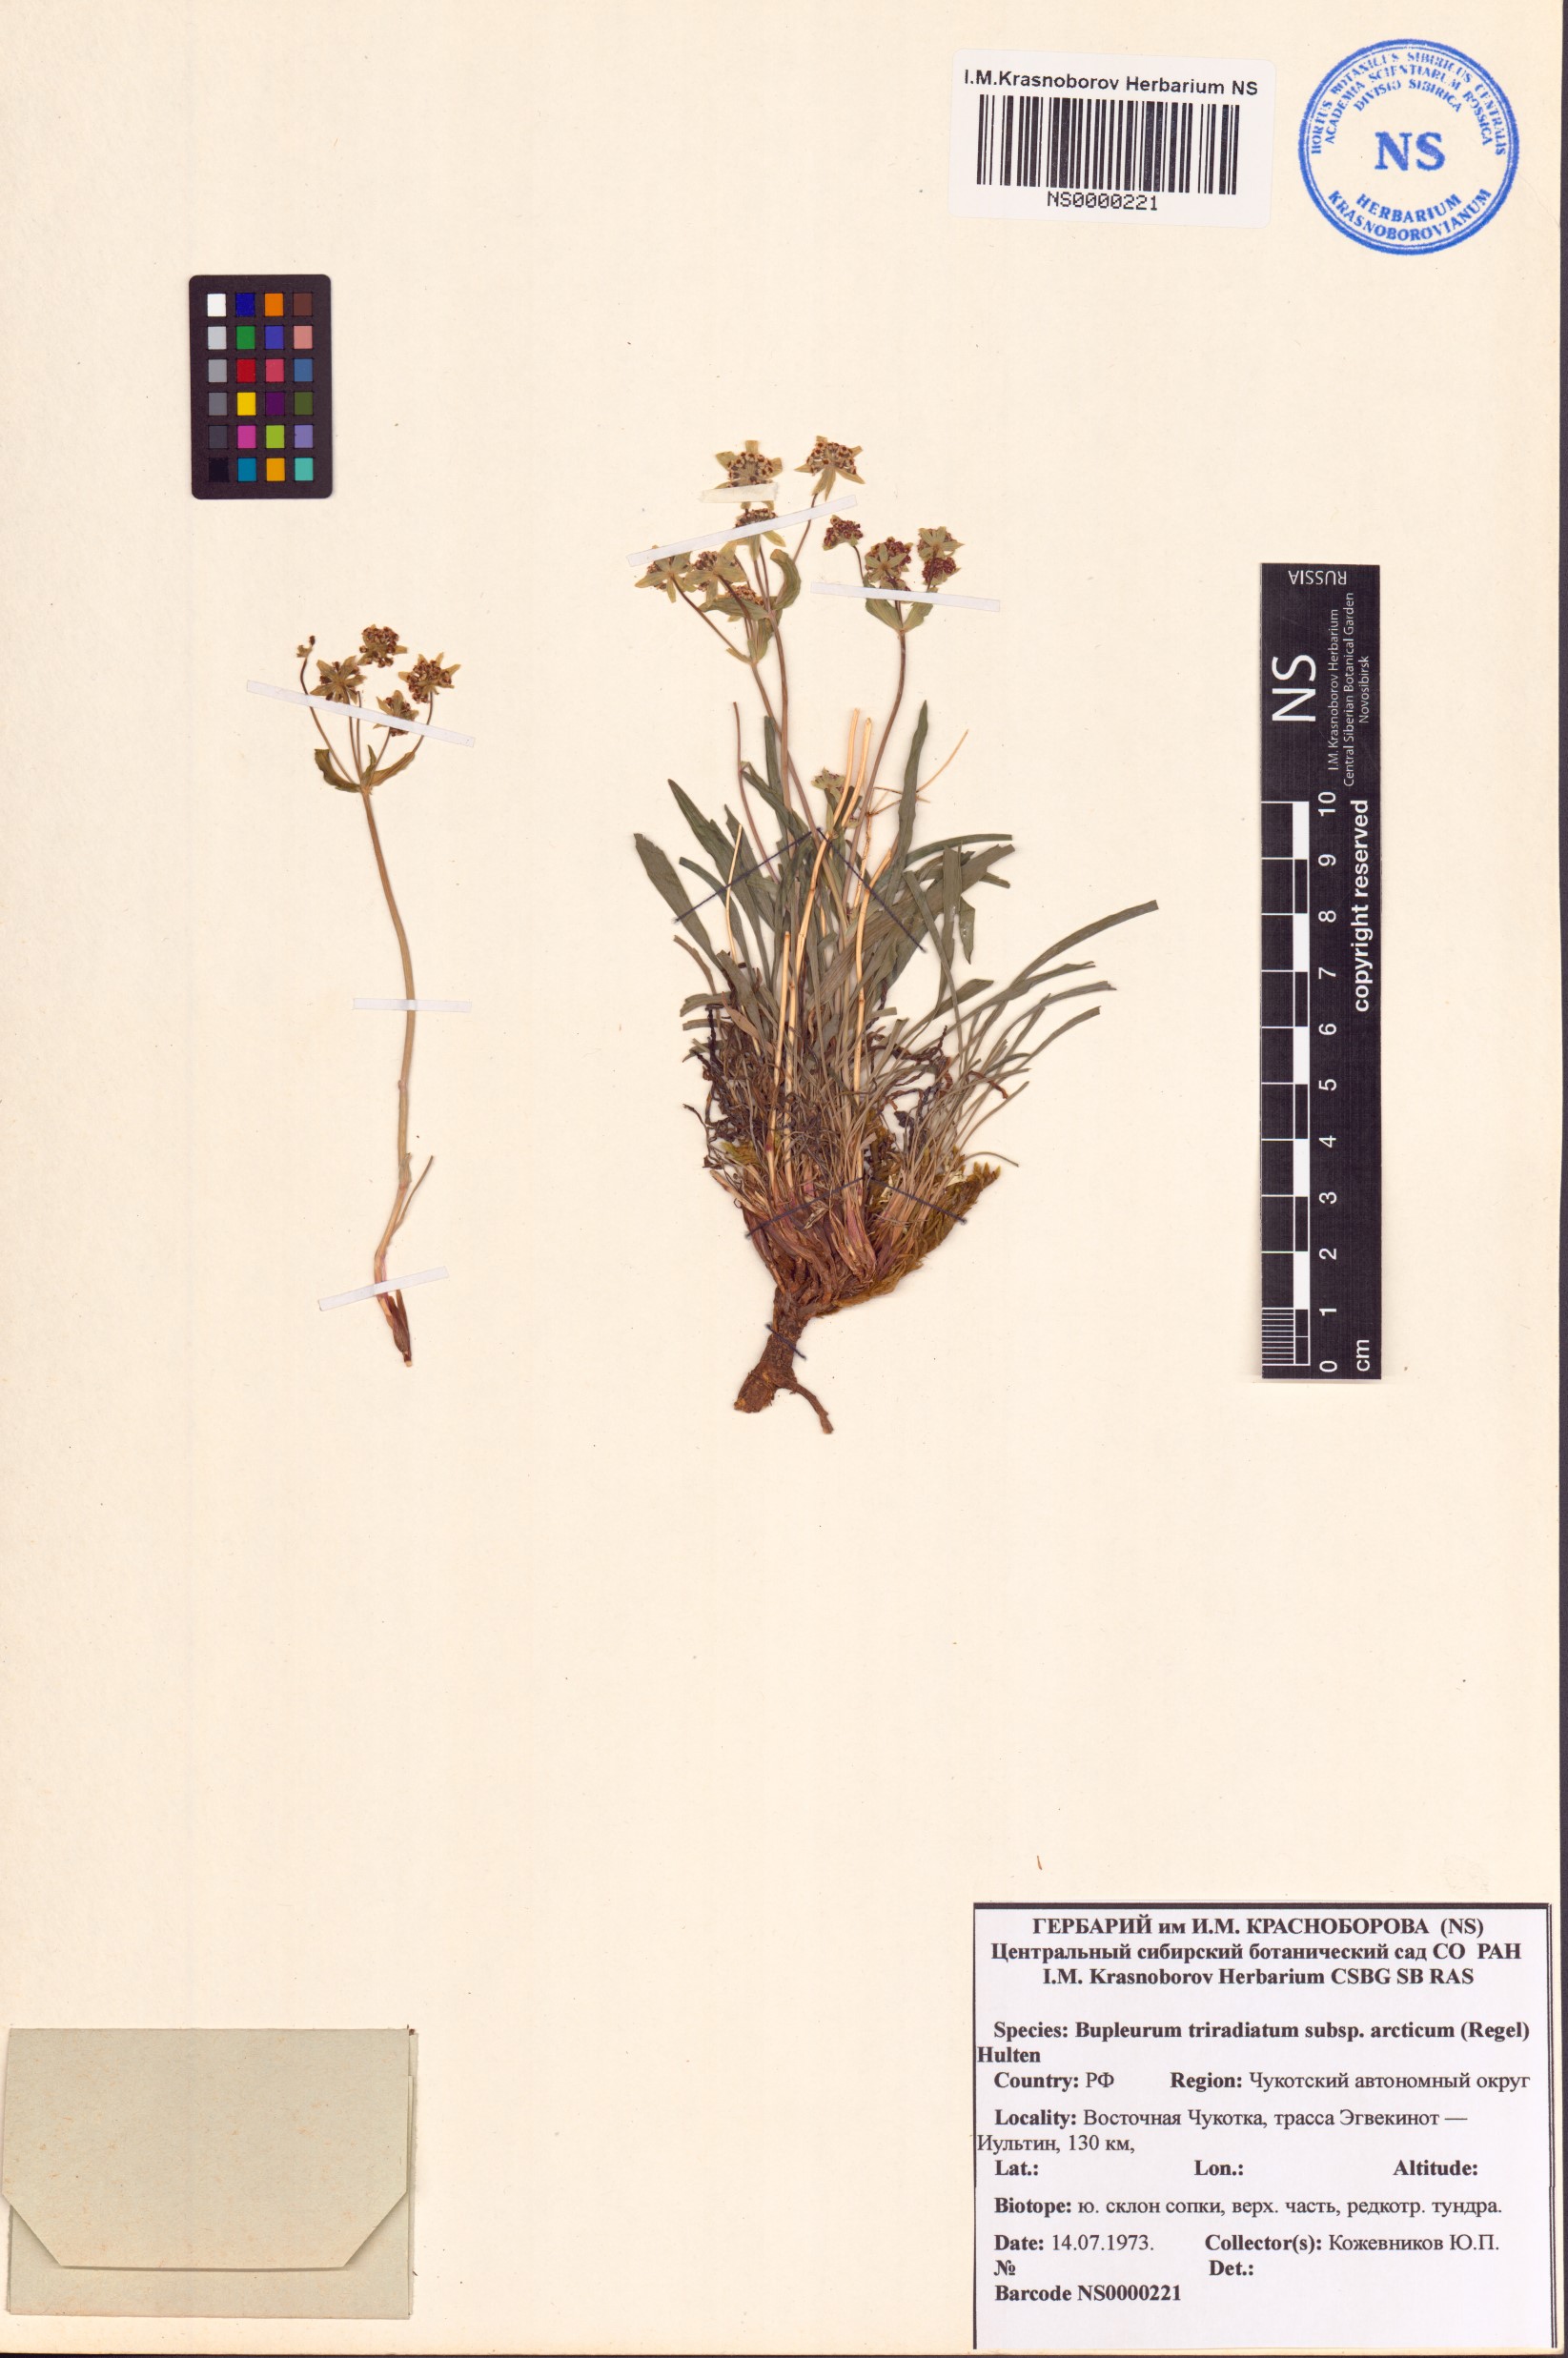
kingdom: Plantae
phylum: Tracheophyta
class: Magnoliopsida
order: Apiales
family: Apiaceae
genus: Bupleurum
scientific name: Bupleurum americanum
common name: American thoroughwax
